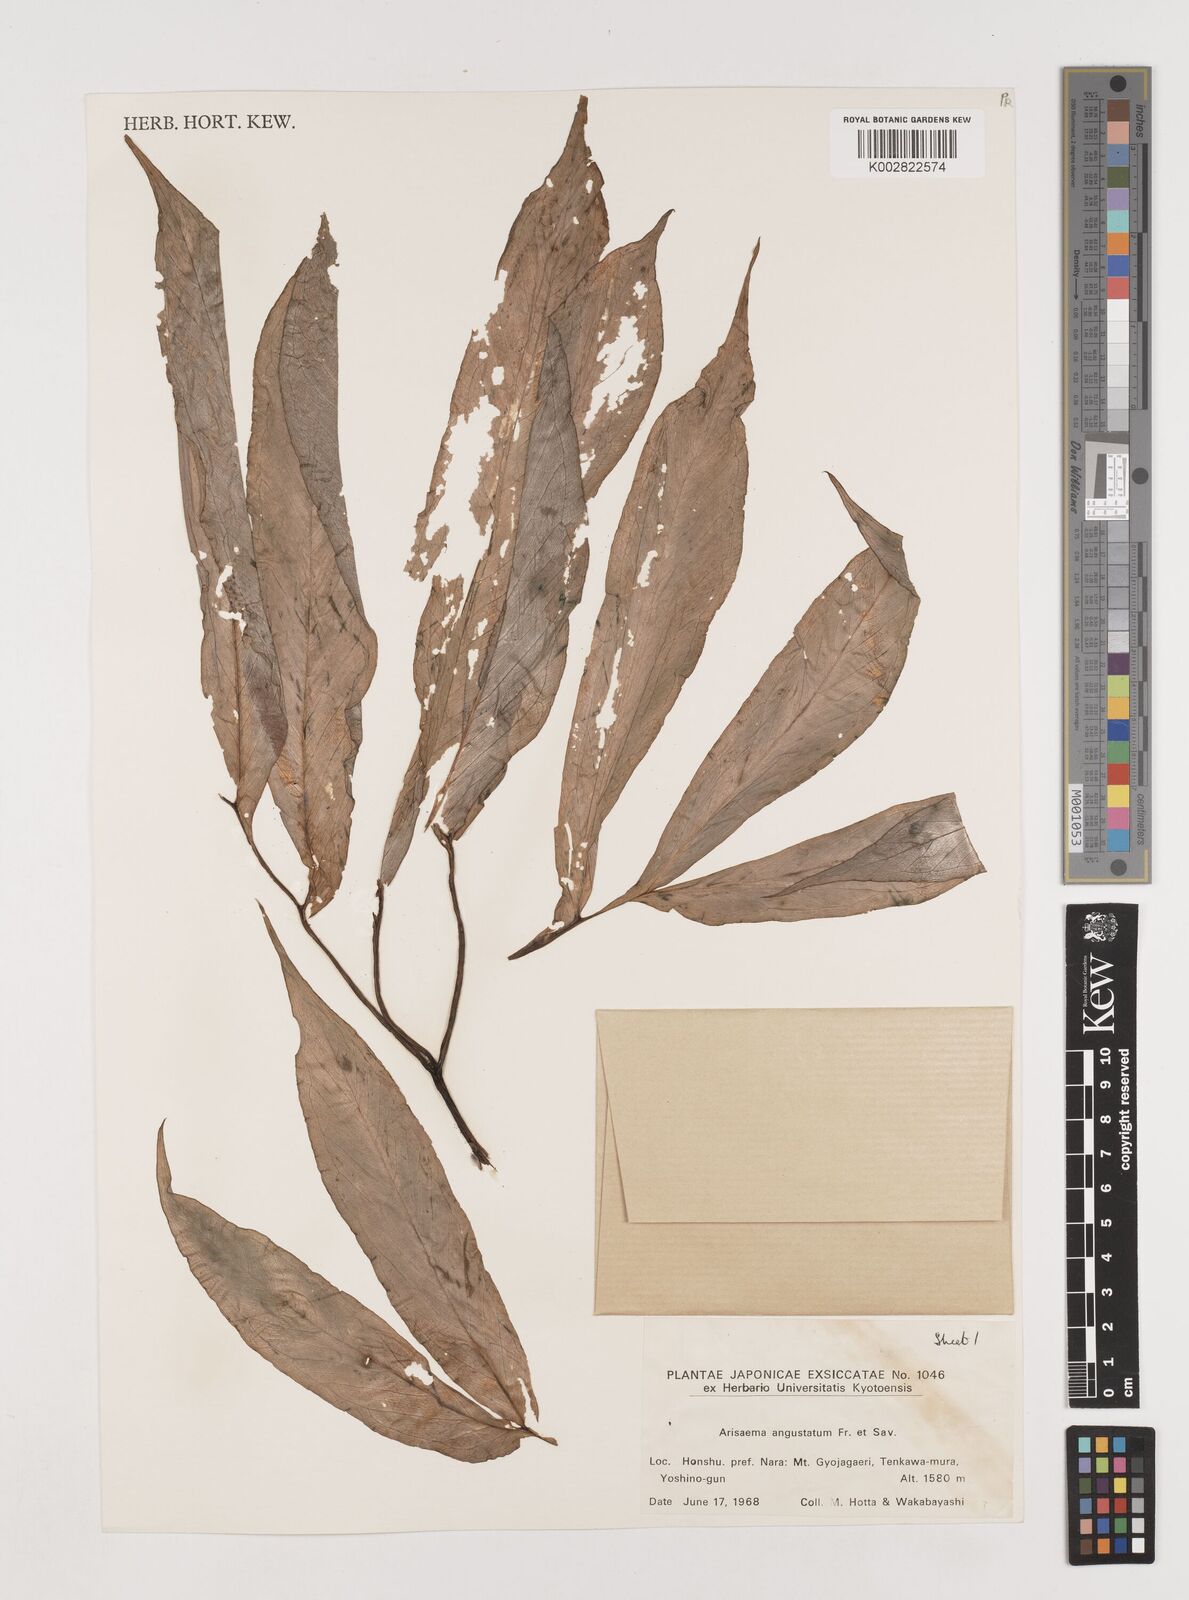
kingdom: Plantae
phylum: Tracheophyta
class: Liliopsida
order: Alismatales
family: Araceae
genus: Arisaema
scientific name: Arisaema serratum
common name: Japanese arisaema
